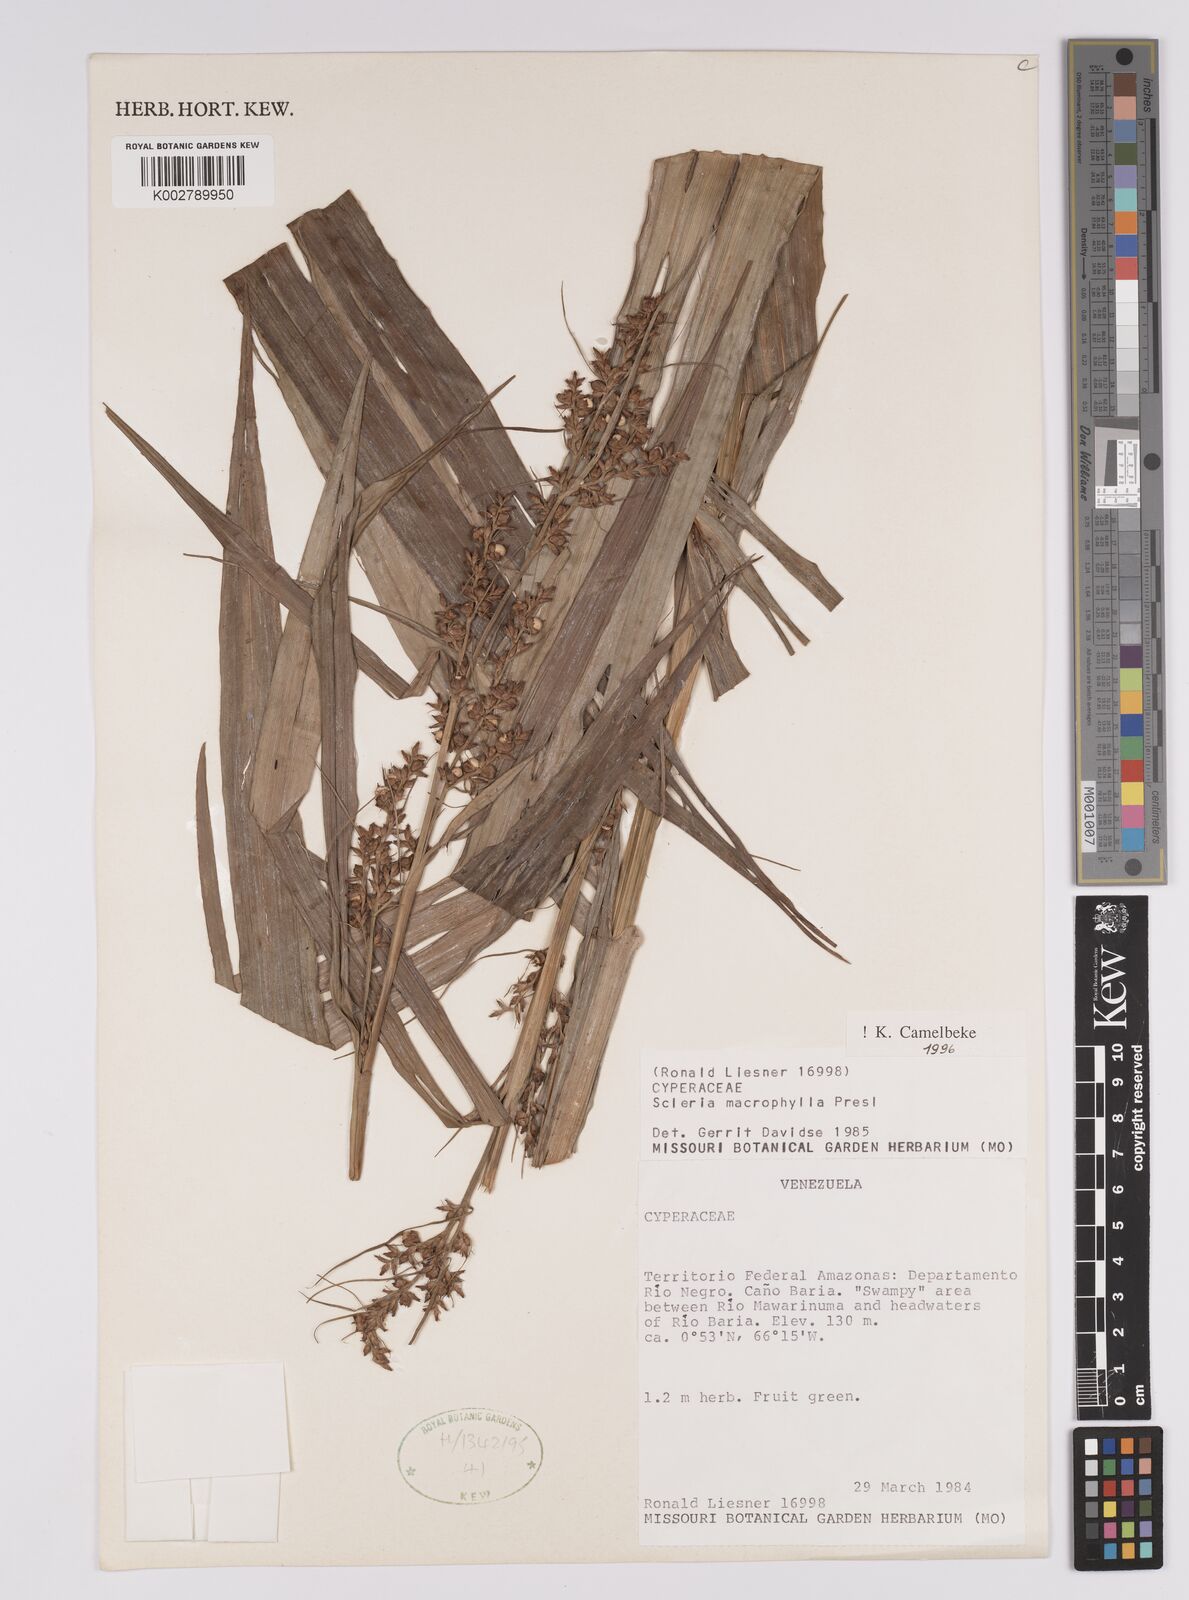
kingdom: Plantae
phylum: Tracheophyta
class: Liliopsida
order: Poales
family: Cyperaceae
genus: Scleria
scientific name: Scleria macrophylla
